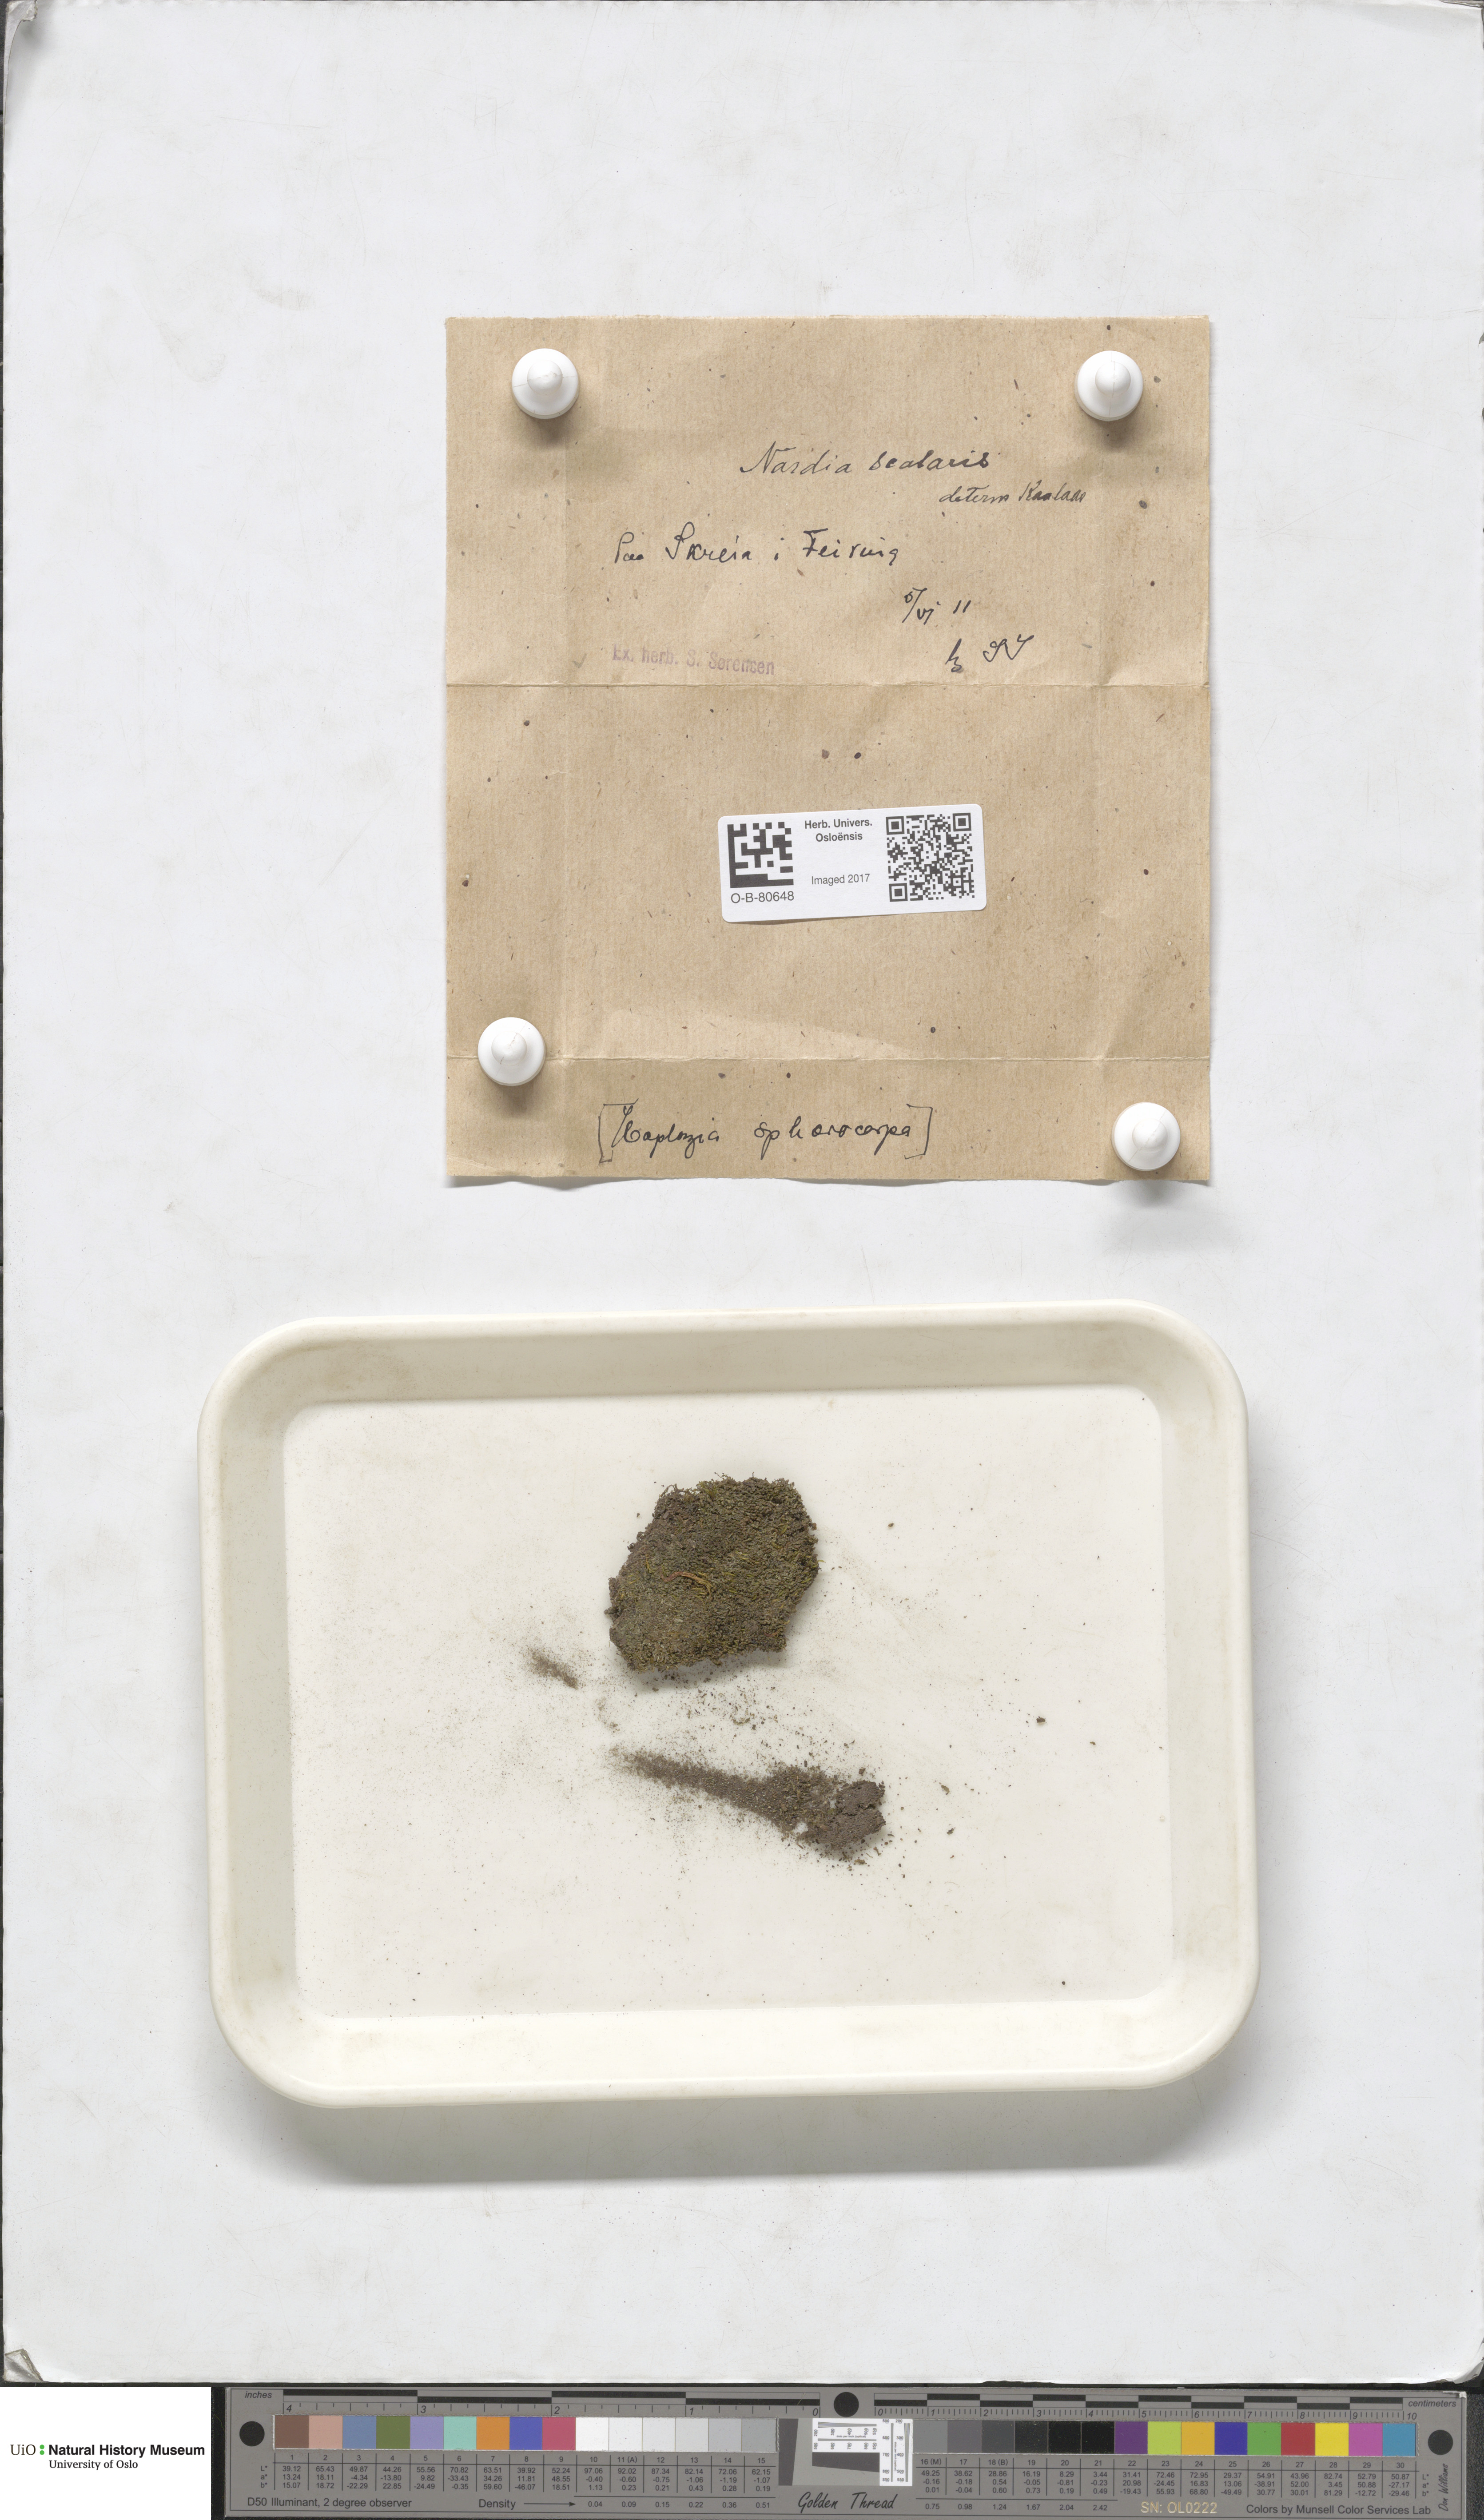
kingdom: Plantae
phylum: Marchantiophyta
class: Jungermanniopsida
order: Jungermanniales
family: Gymnomitriaceae
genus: Nardia
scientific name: Nardia scalaris
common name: Ladder flapwort
